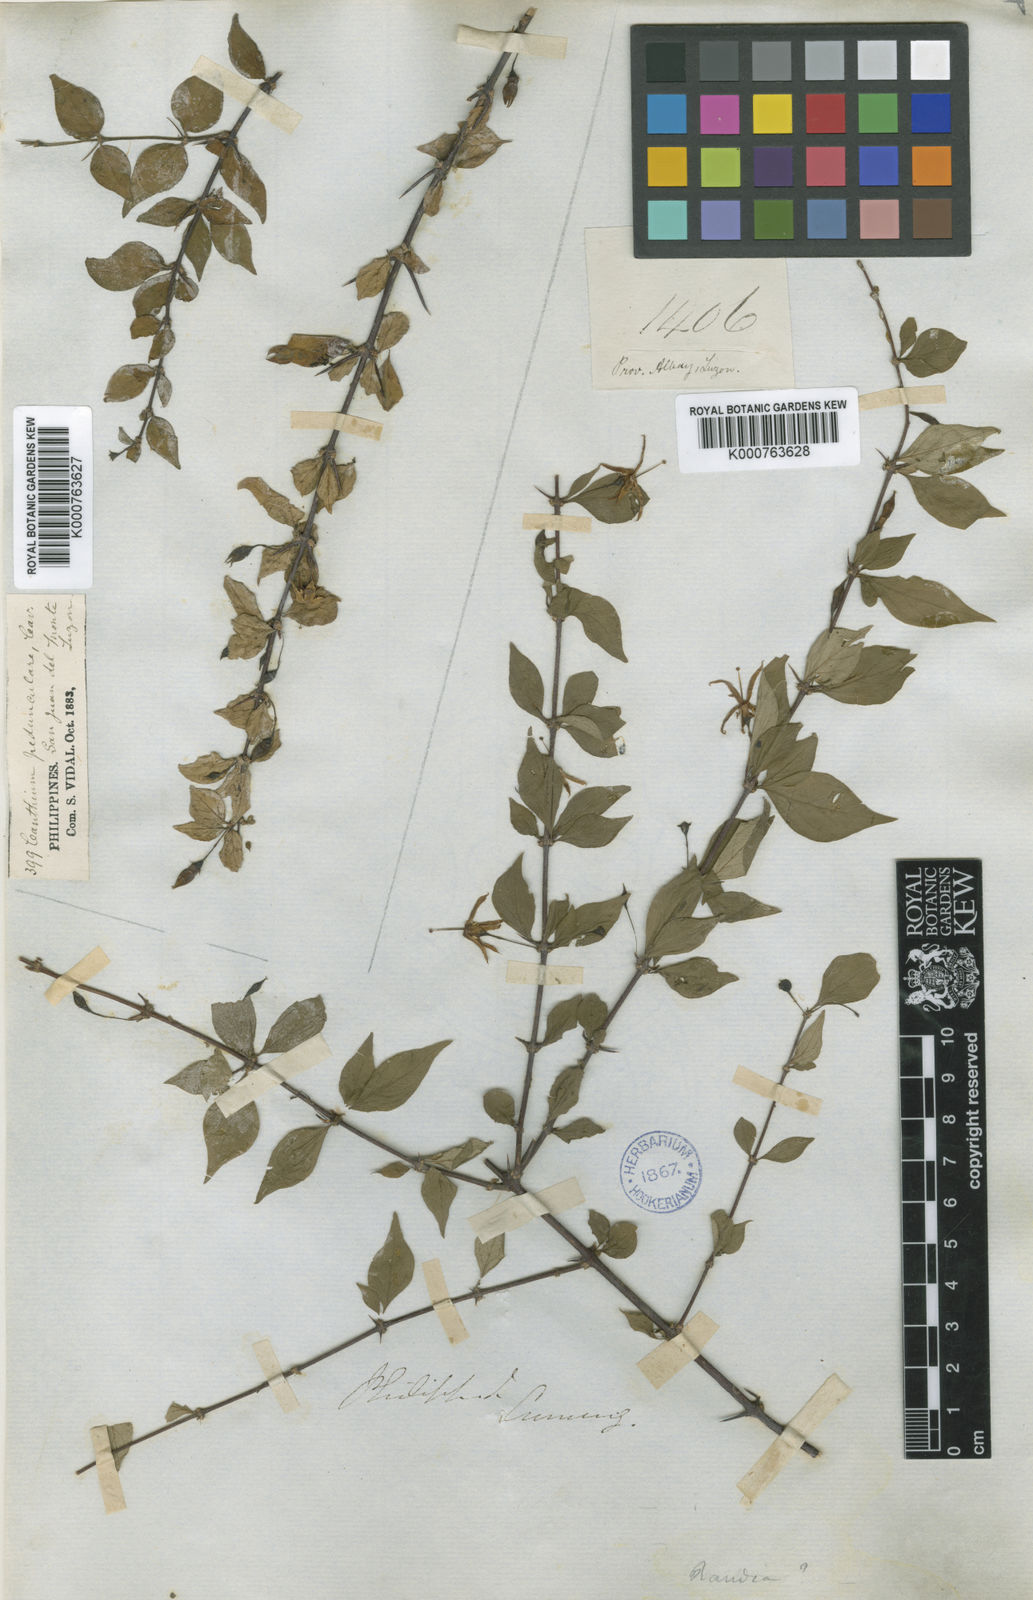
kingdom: Plantae
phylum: Tracheophyta
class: Magnoliopsida
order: Gentianales
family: Rubiaceae
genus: Canthium
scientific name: Canthium pedunculare
